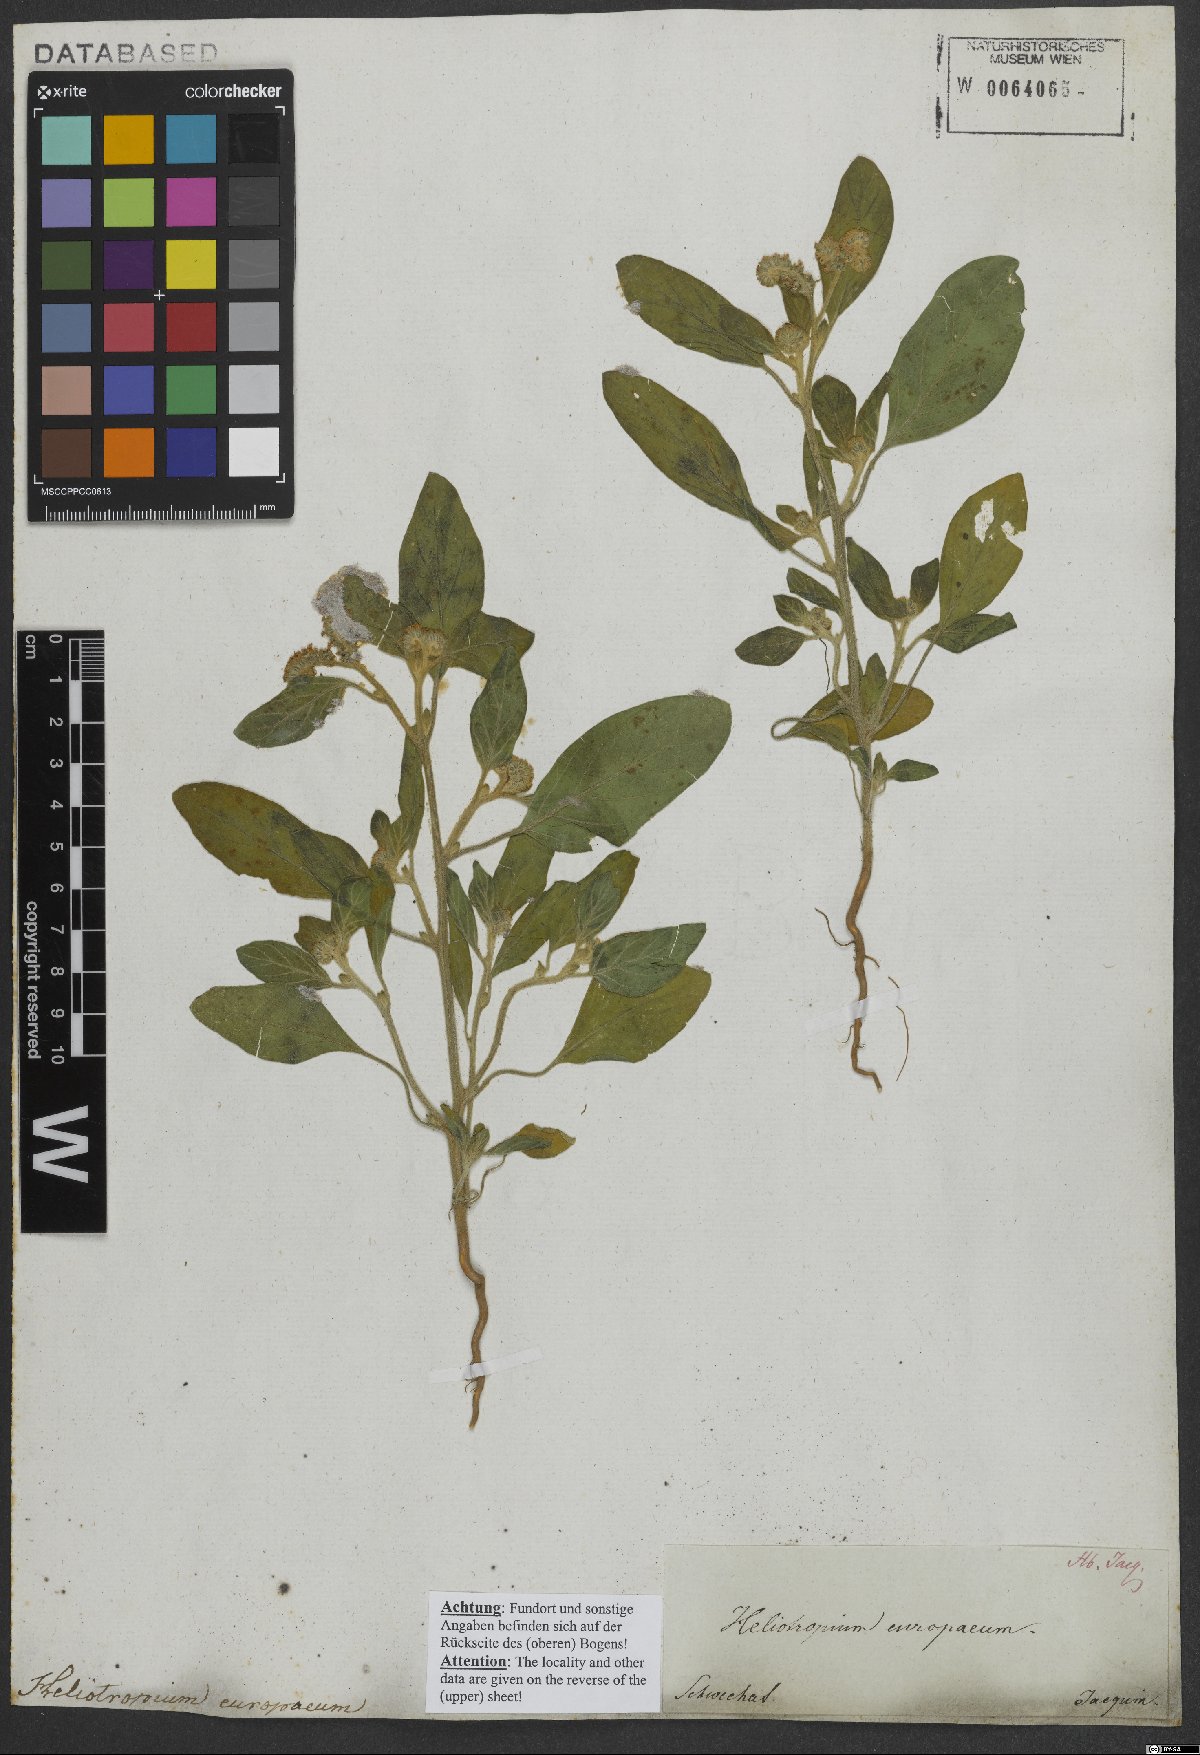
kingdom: Plantae
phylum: Tracheophyta
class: Magnoliopsida
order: Boraginales
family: Heliotropiaceae
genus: Heliotropium
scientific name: Heliotropium europaeum
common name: European heliotrope
